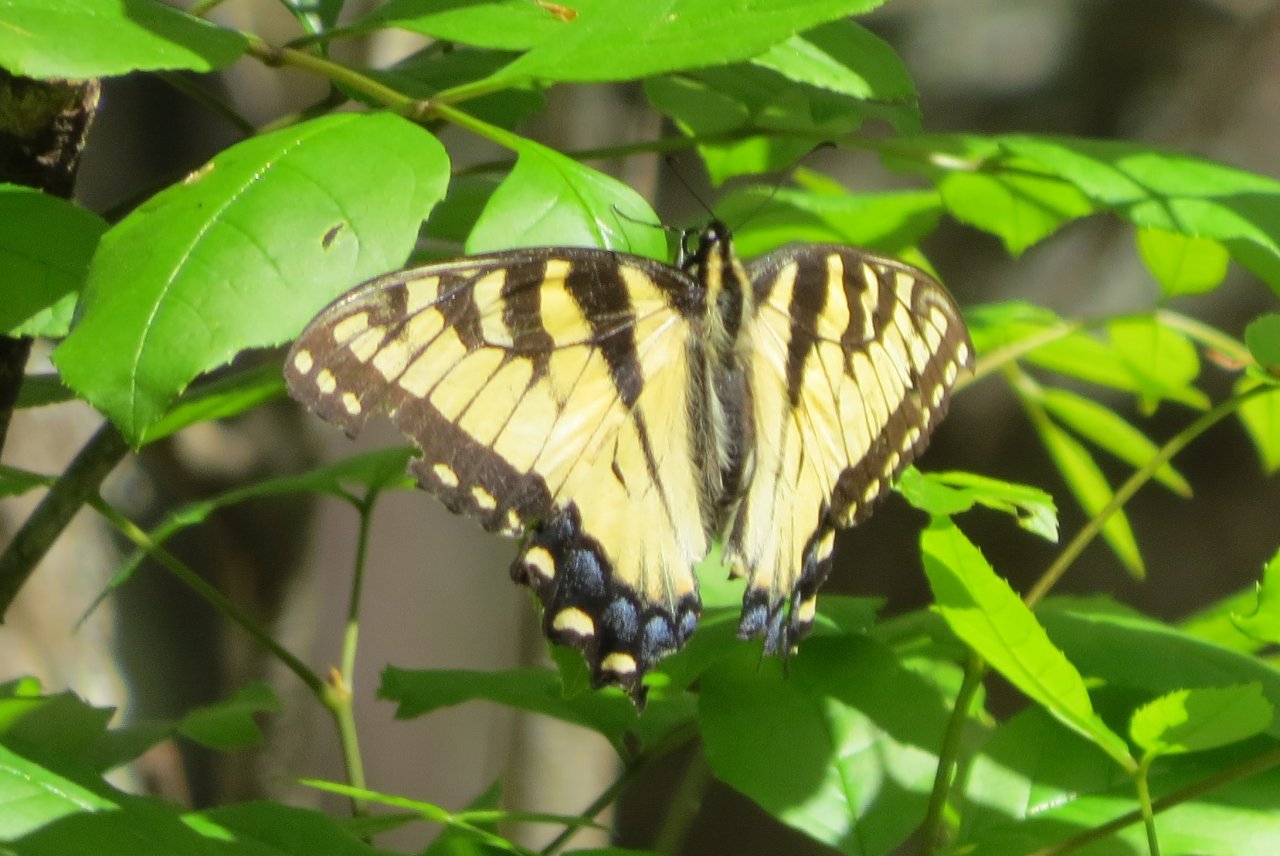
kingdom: Animalia
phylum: Arthropoda
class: Insecta
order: Lepidoptera
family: Papilionidae
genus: Pterourus
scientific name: Pterourus glaucus
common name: Eastern Tiger Swallowtail
